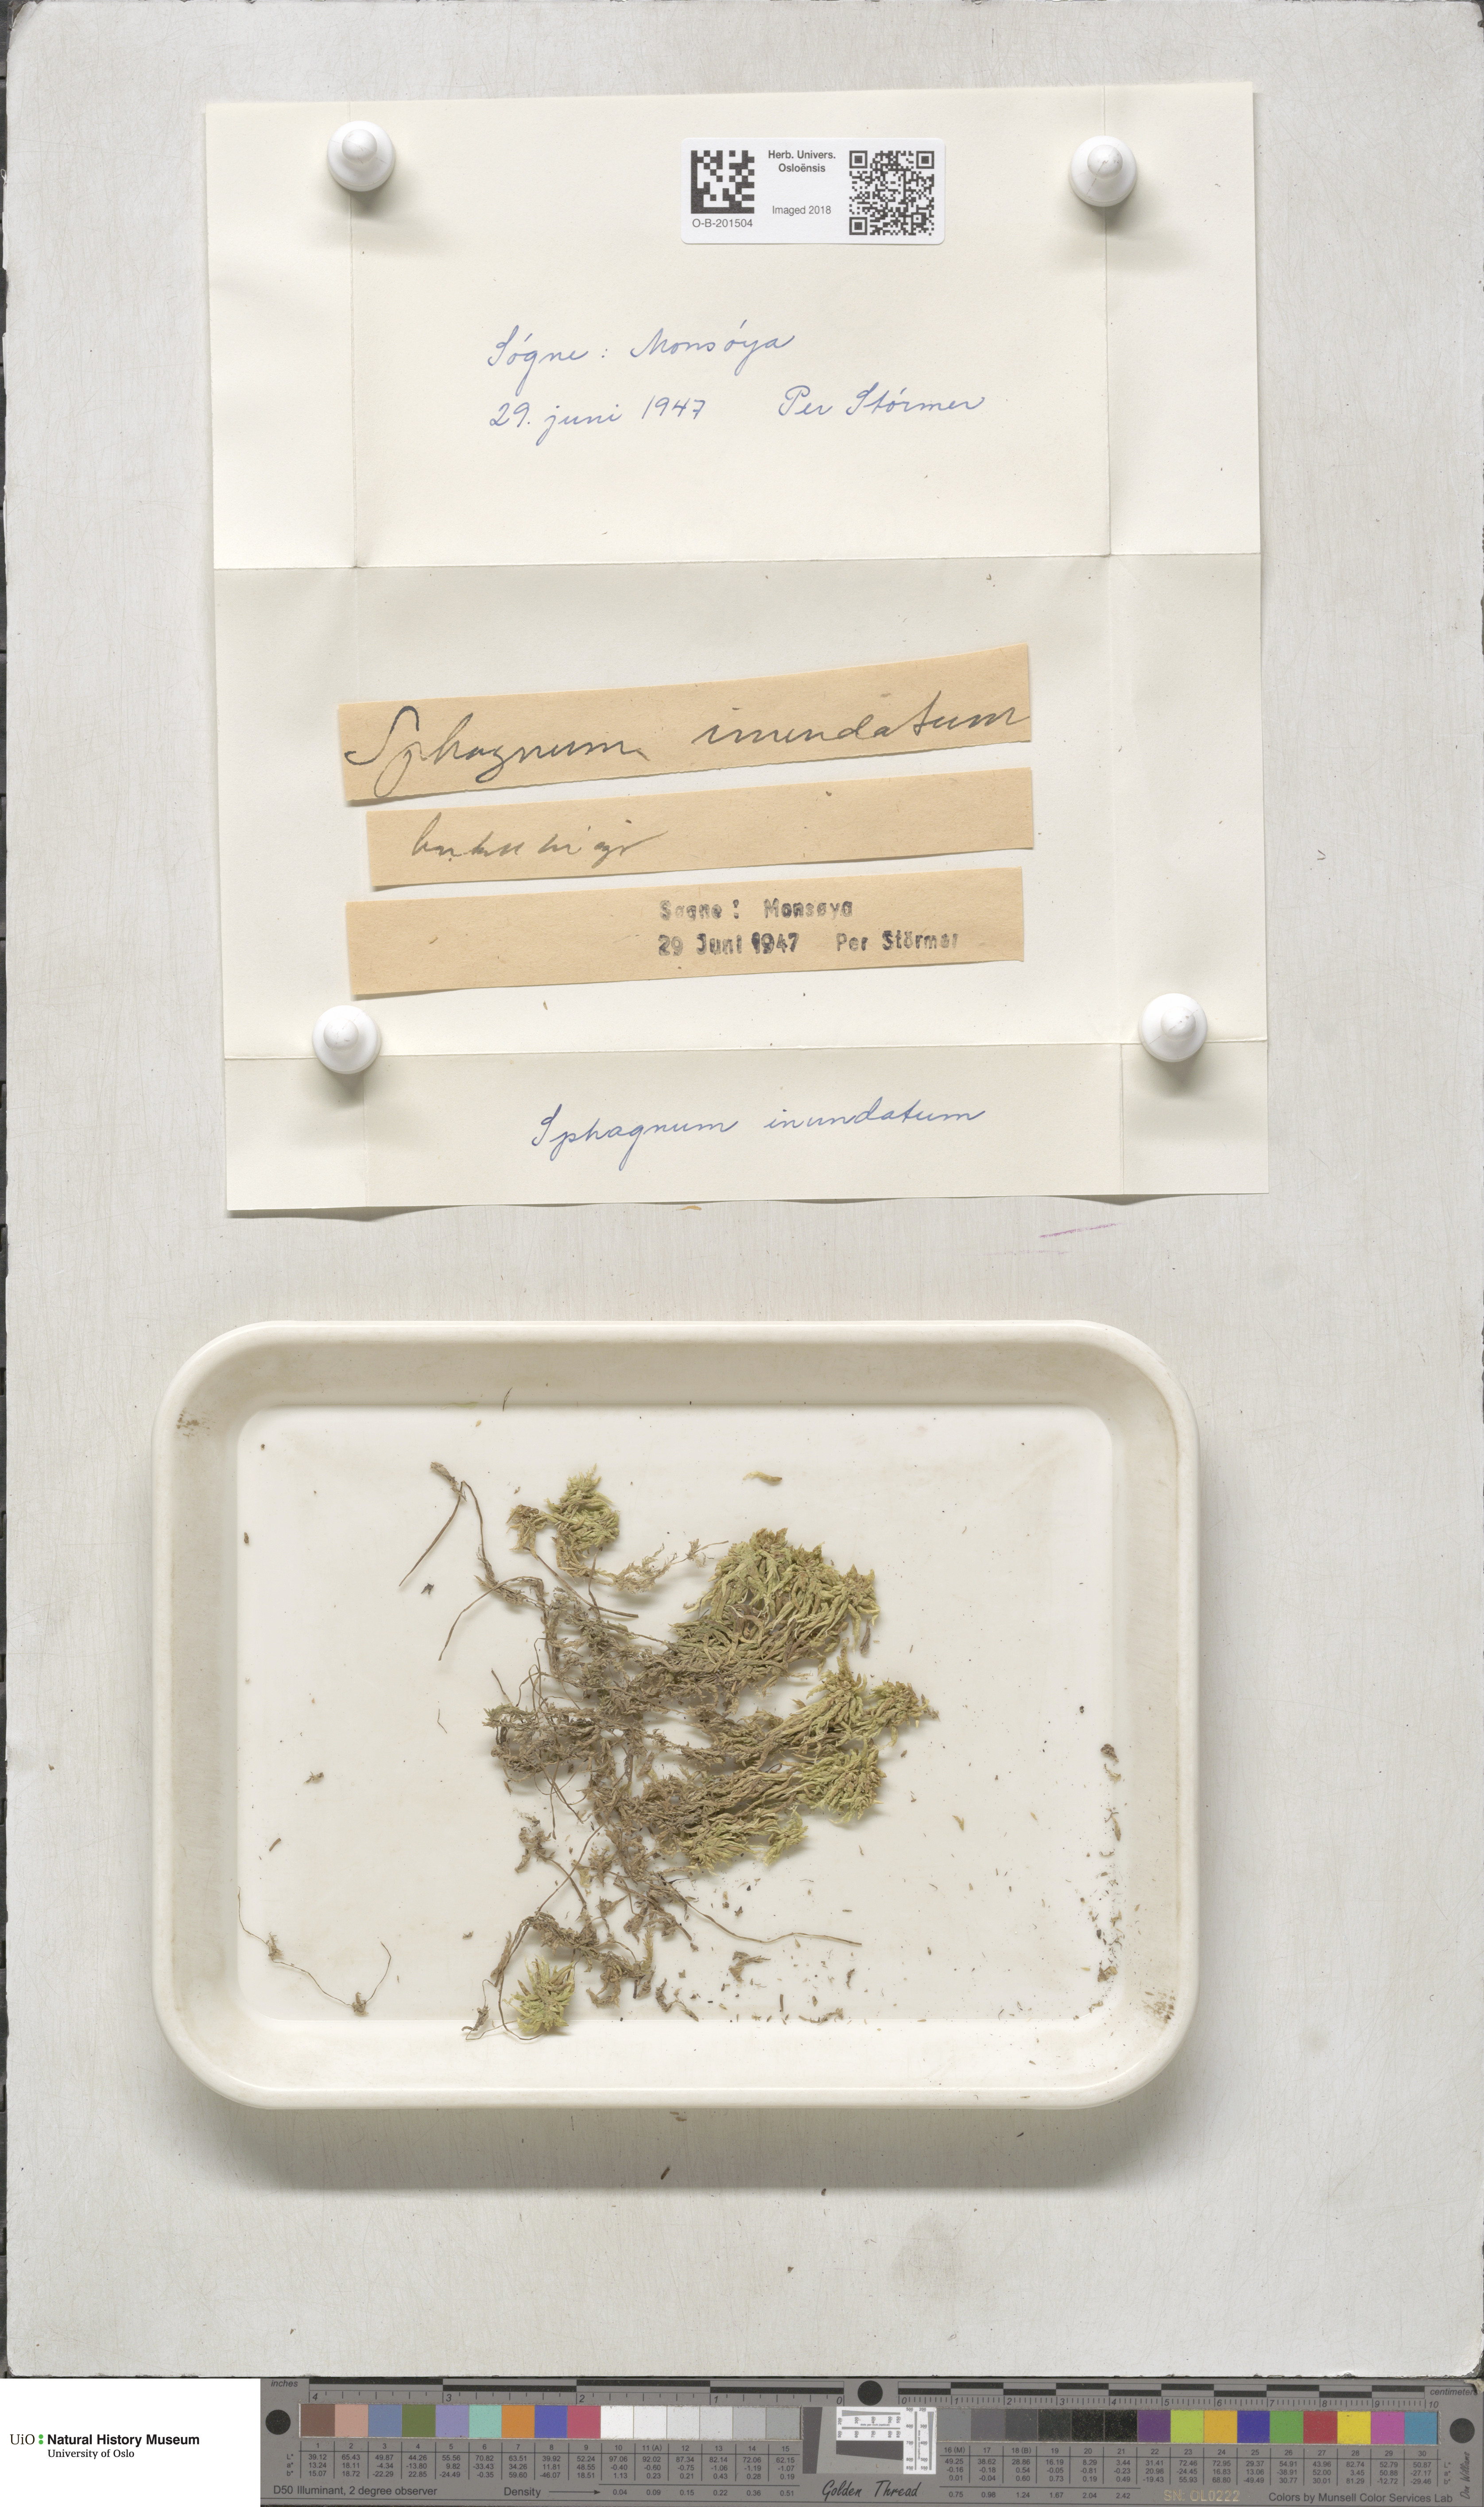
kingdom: Plantae
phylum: Bryophyta
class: Sphagnopsida
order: Sphagnales
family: Sphagnaceae
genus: Sphagnum
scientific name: Sphagnum inundatum
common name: Lesser cow-horn bog-moss
